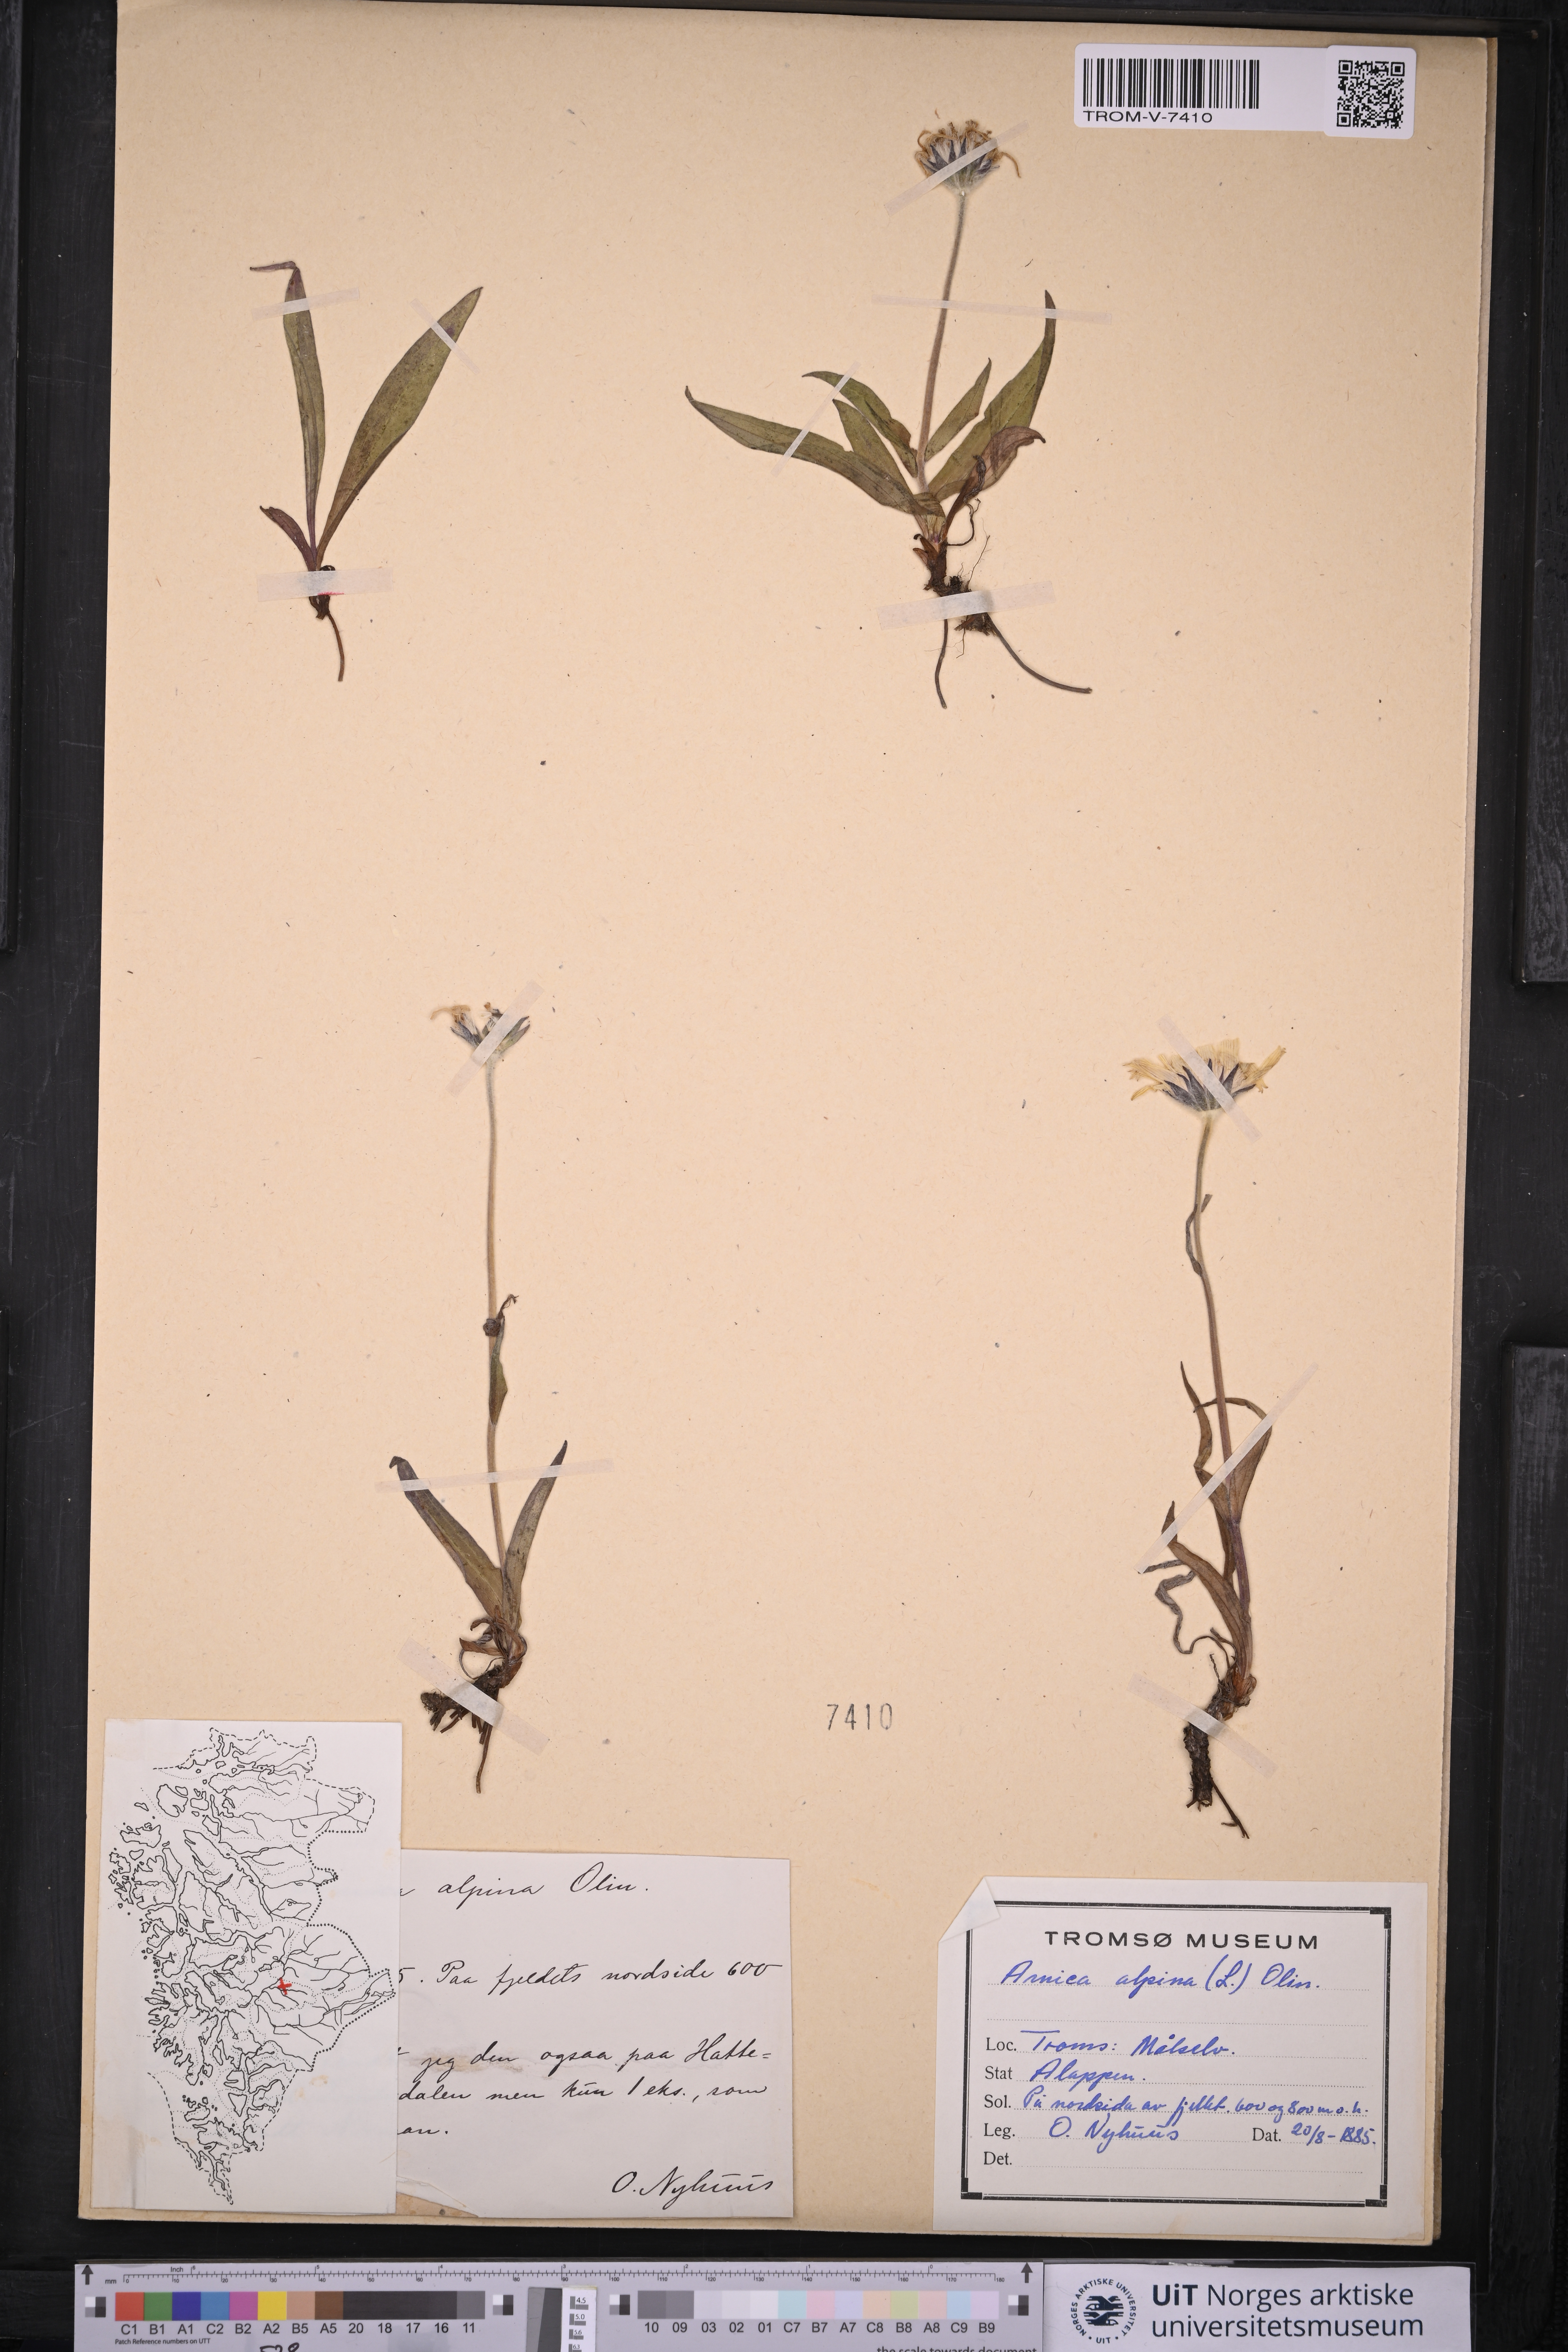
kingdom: Plantae
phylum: Tracheophyta
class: Magnoliopsida
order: Asterales
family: Asteraceae
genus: Arnica
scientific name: Arnica angustifolia
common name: Arctic arnica
